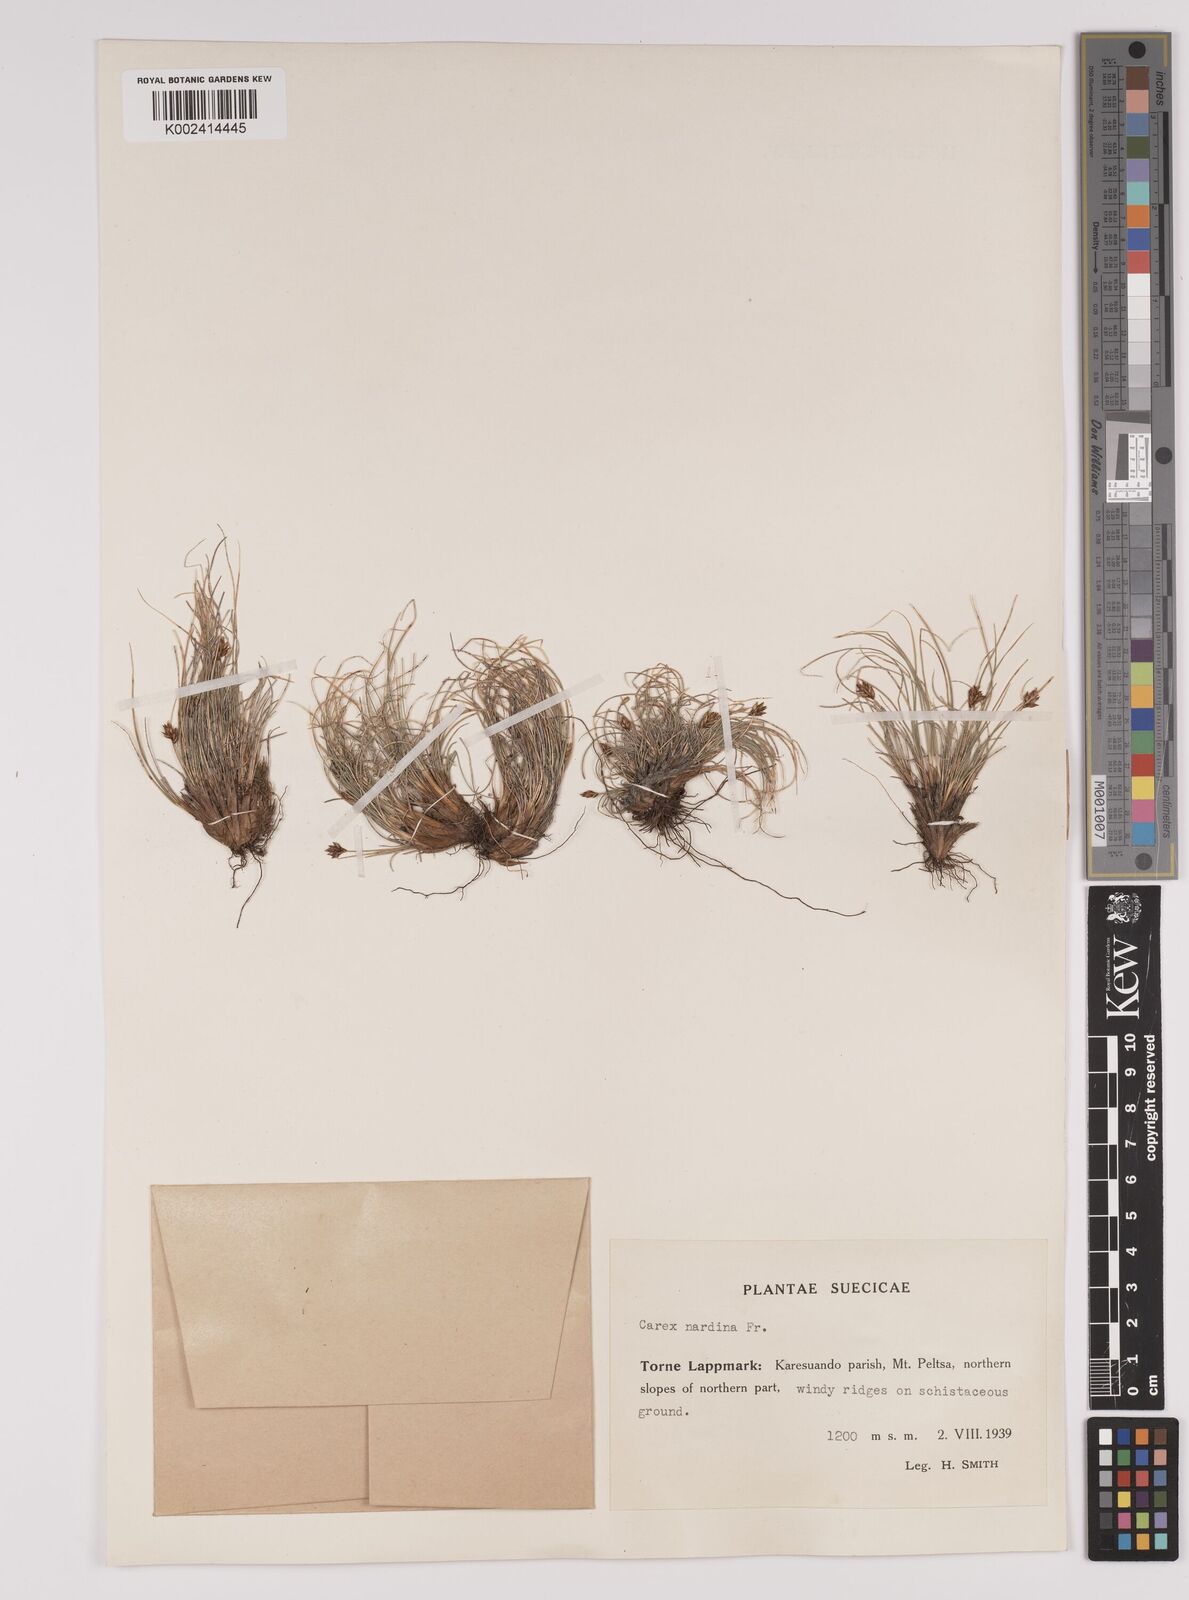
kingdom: Plantae
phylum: Tracheophyta
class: Liliopsida
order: Poales
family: Cyperaceae
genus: Carex
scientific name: Carex nardina
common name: Nard sedge
